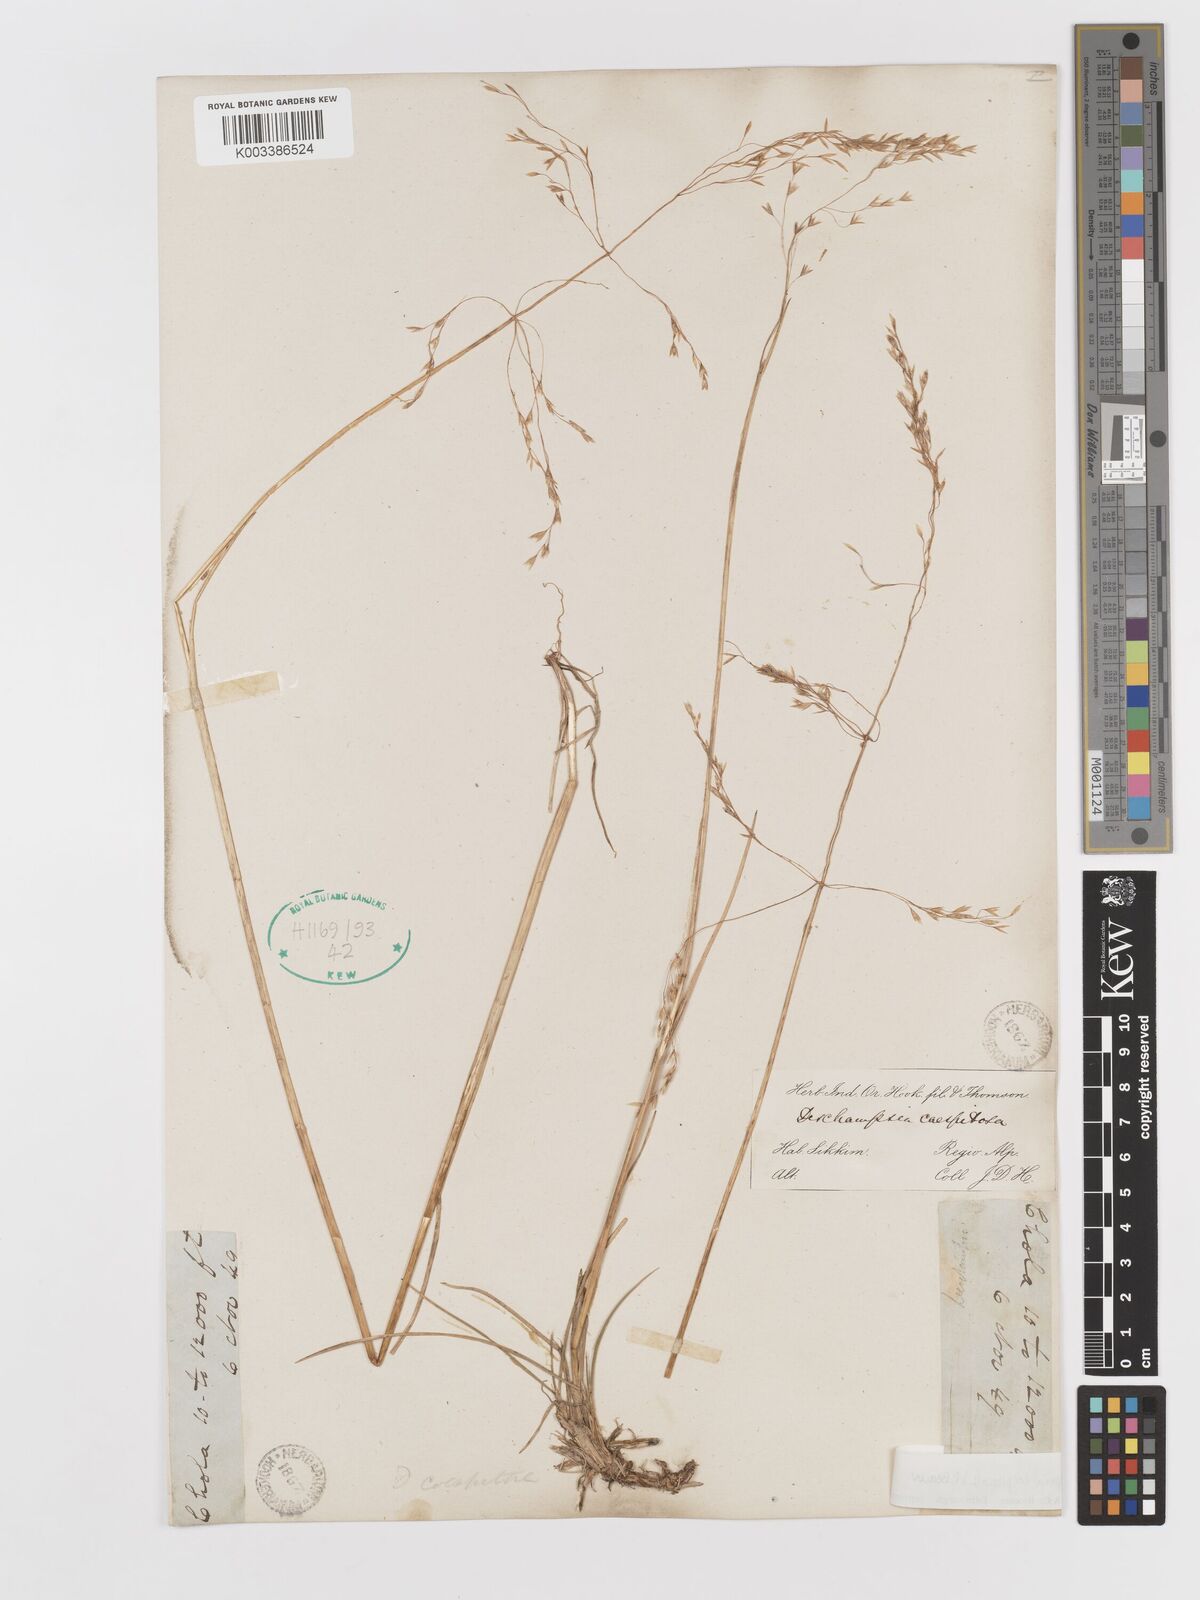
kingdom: Plantae
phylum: Tracheophyta
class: Liliopsida
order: Poales
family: Poaceae
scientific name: Poaceae
